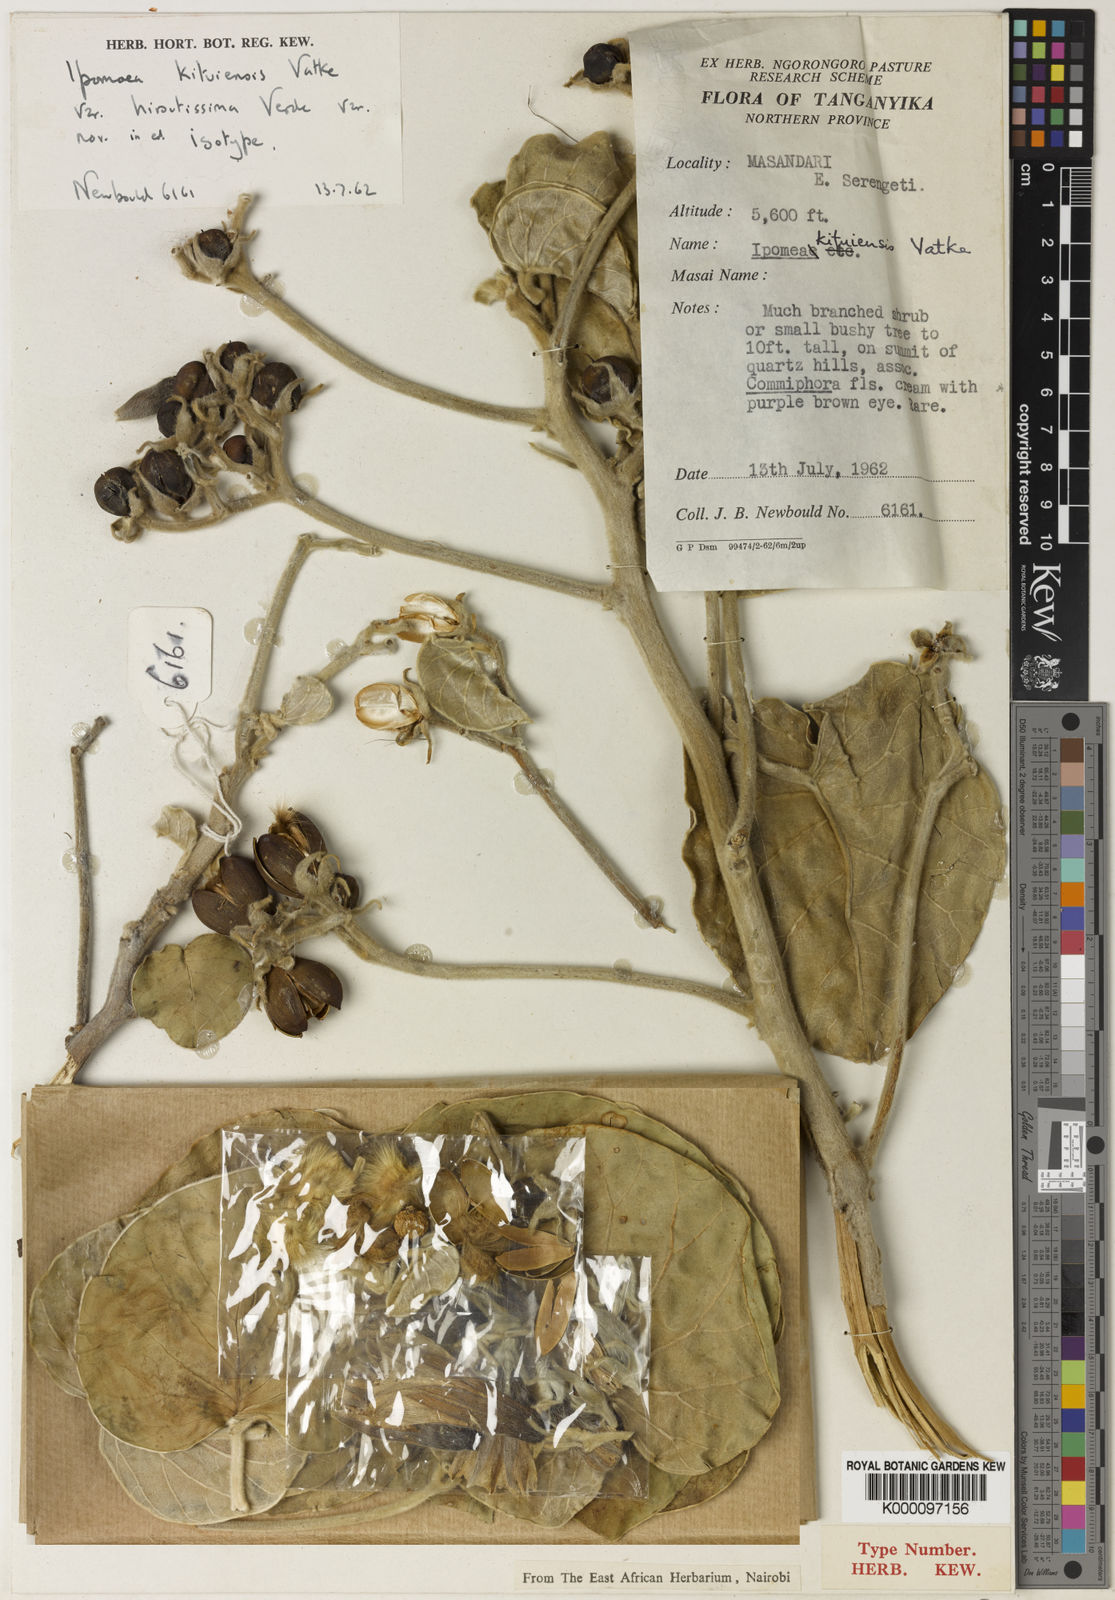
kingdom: Plantae
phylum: Tracheophyta
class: Magnoliopsida
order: Solanales
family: Convolvulaceae
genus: Ipomoea
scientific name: Ipomoea kituiensis
